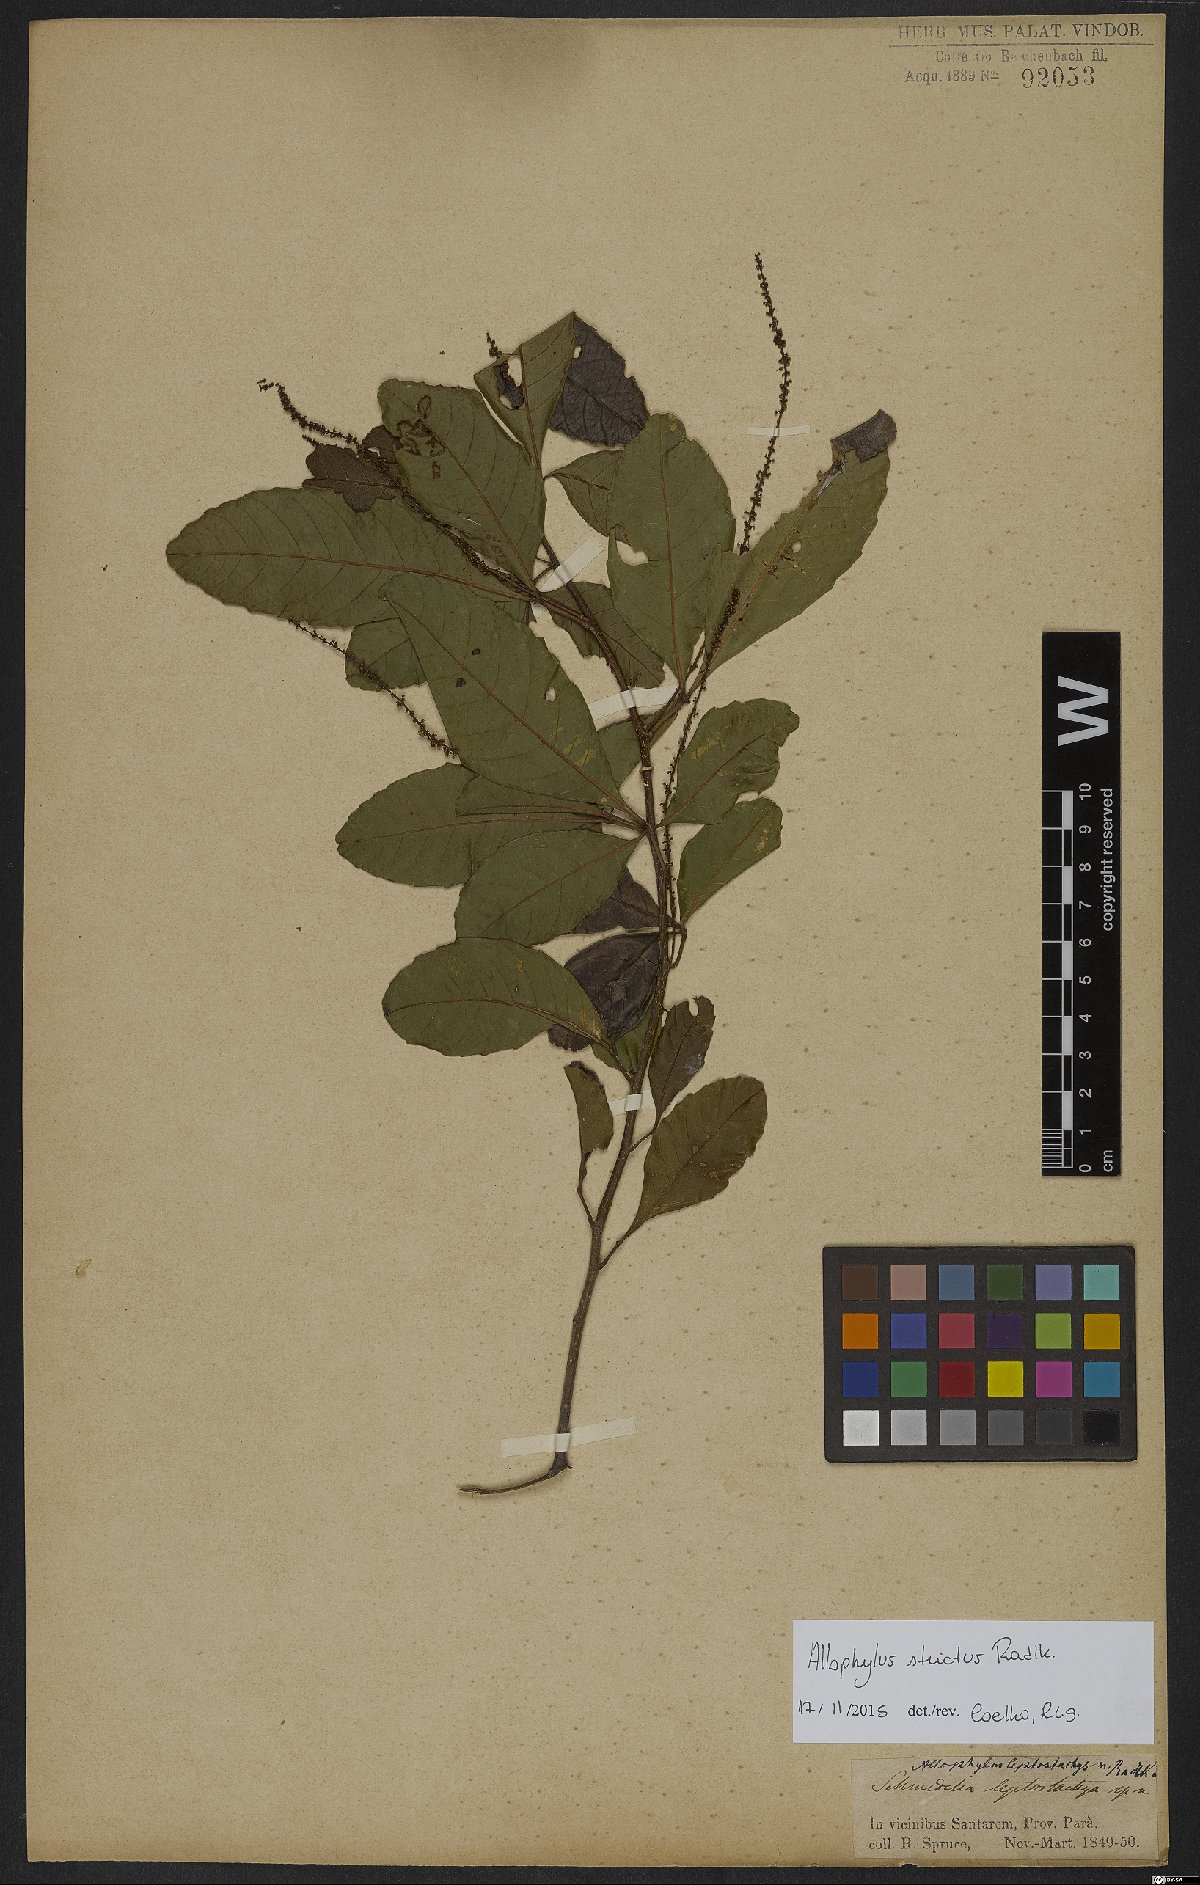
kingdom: Plantae
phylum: Tracheophyta
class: Magnoliopsida
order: Sapindales
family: Sapindaceae
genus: Allophylus
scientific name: Allophylus strictus
